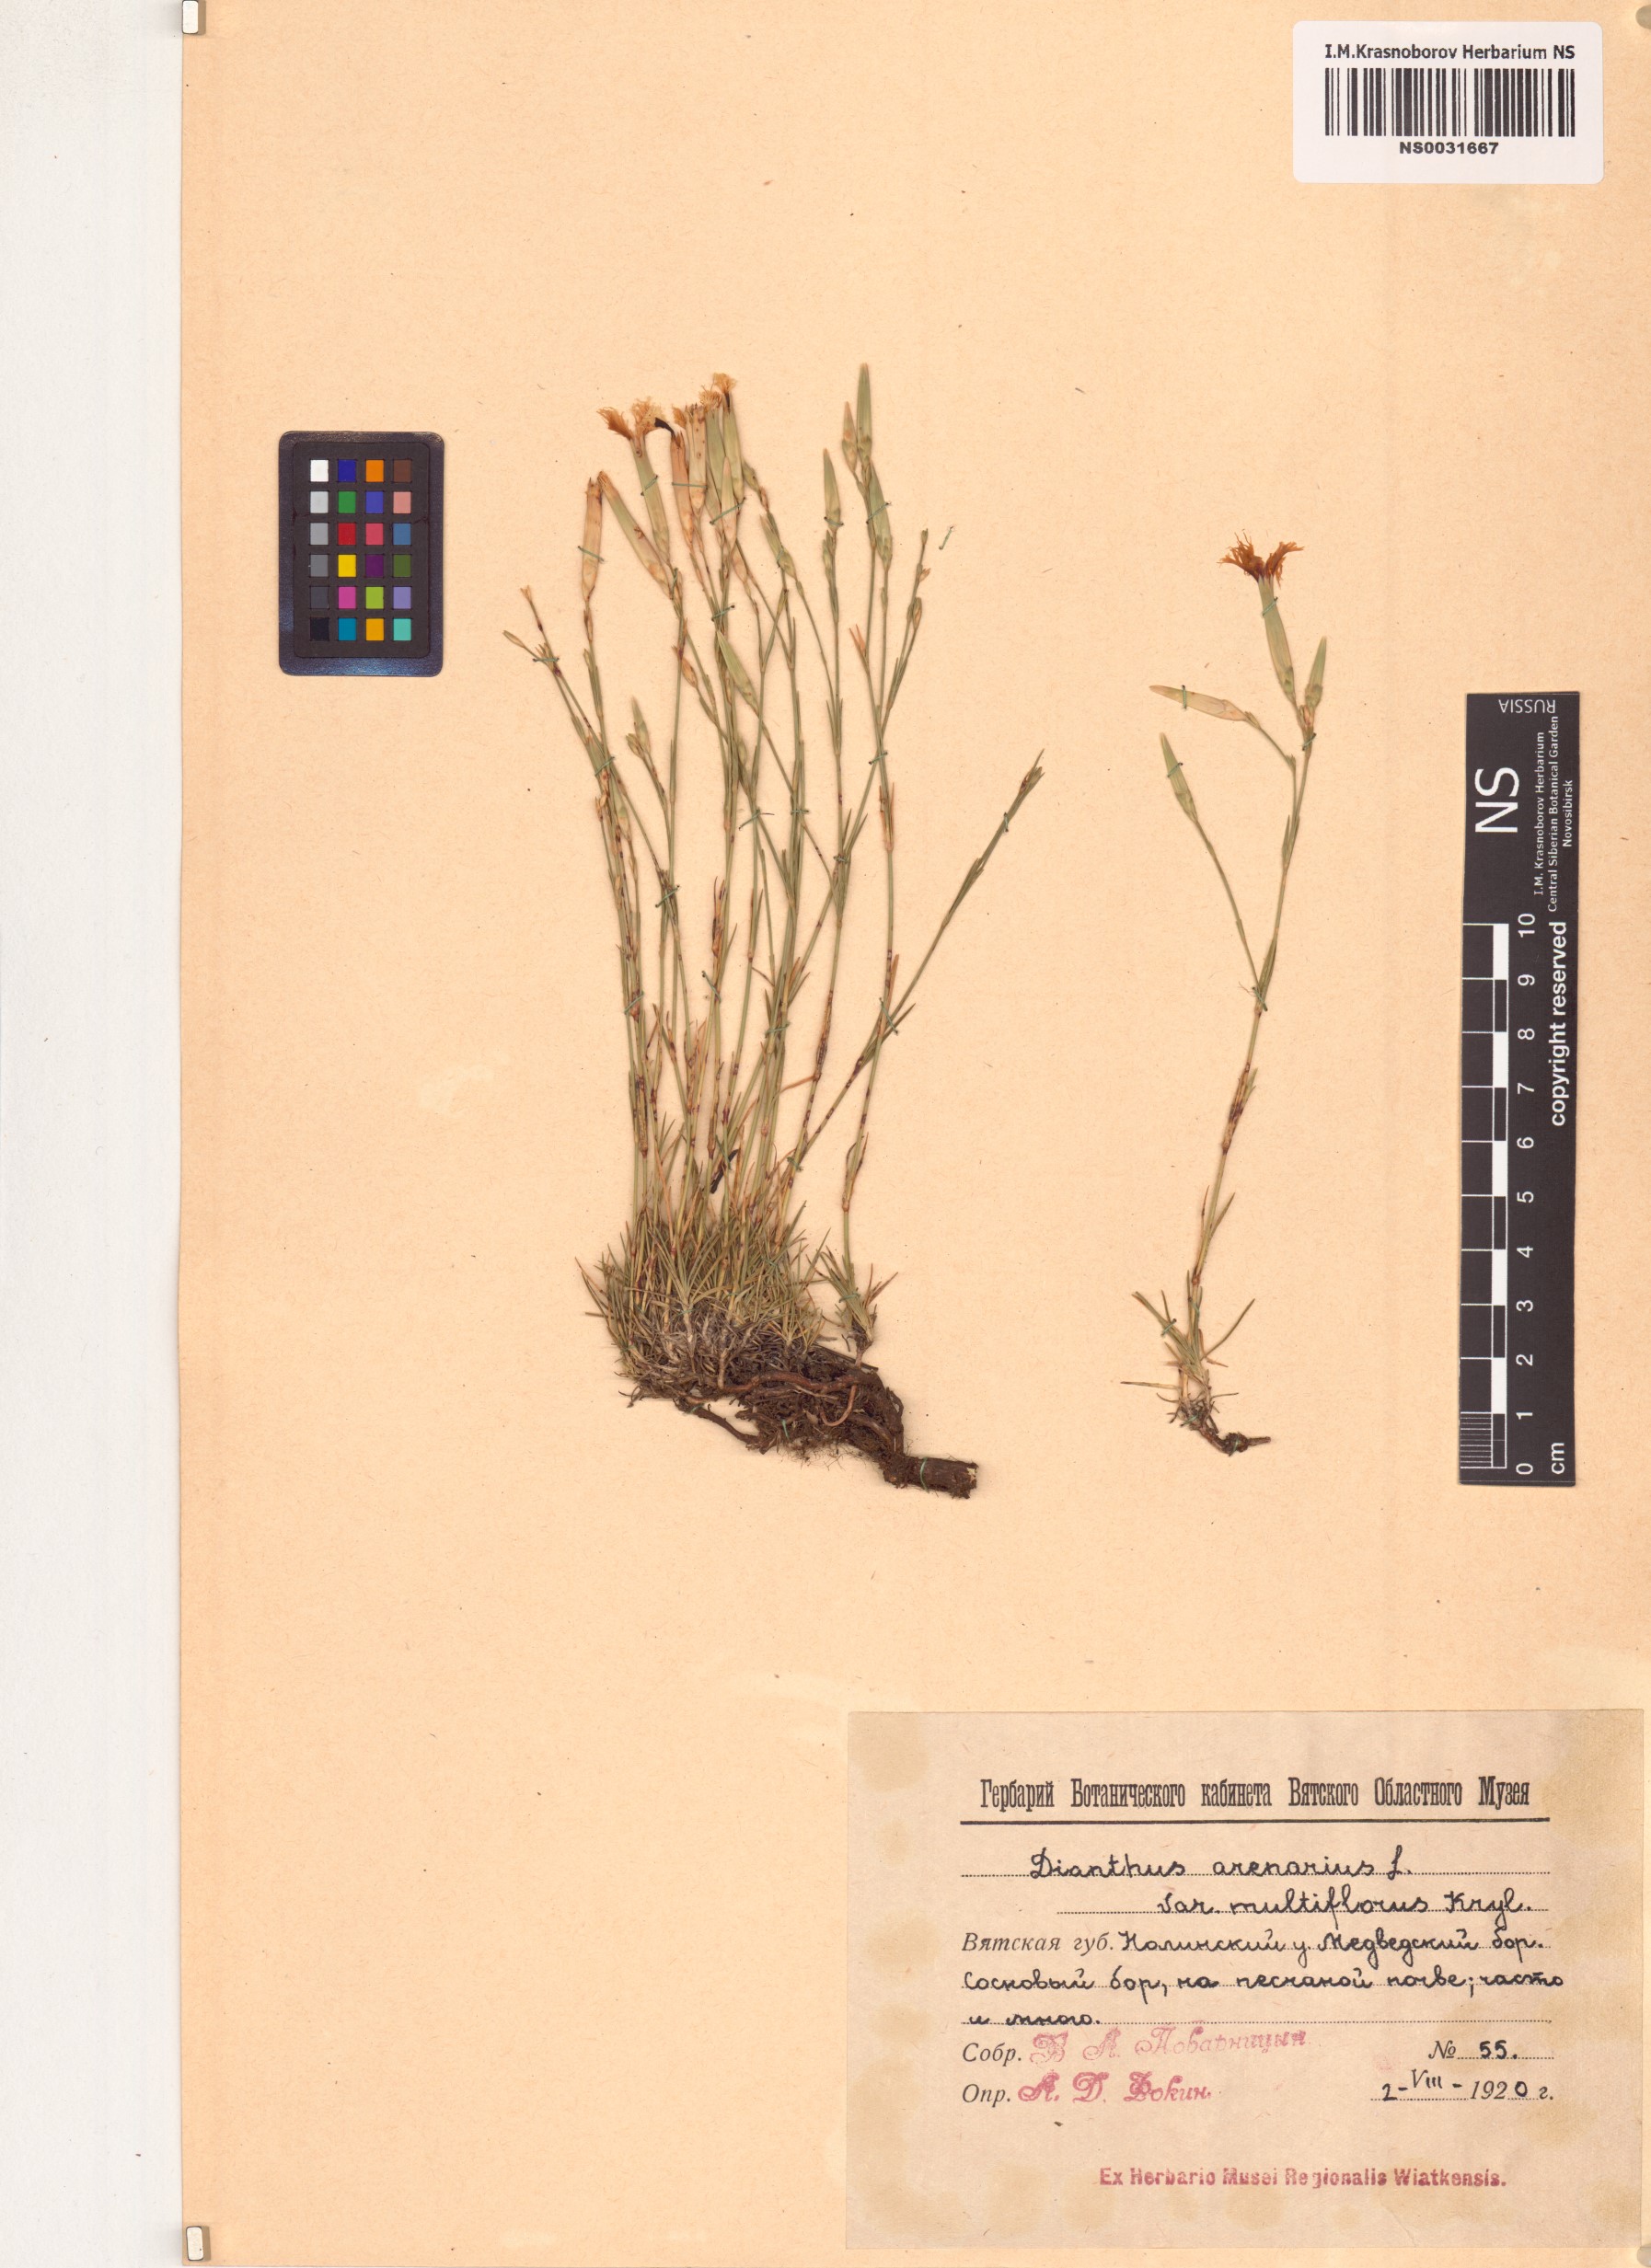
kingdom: Plantae
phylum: Tracheophyta
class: Magnoliopsida
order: Caryophyllales
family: Caryophyllaceae
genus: Dianthus
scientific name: Dianthus arenarius
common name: Stone pink
